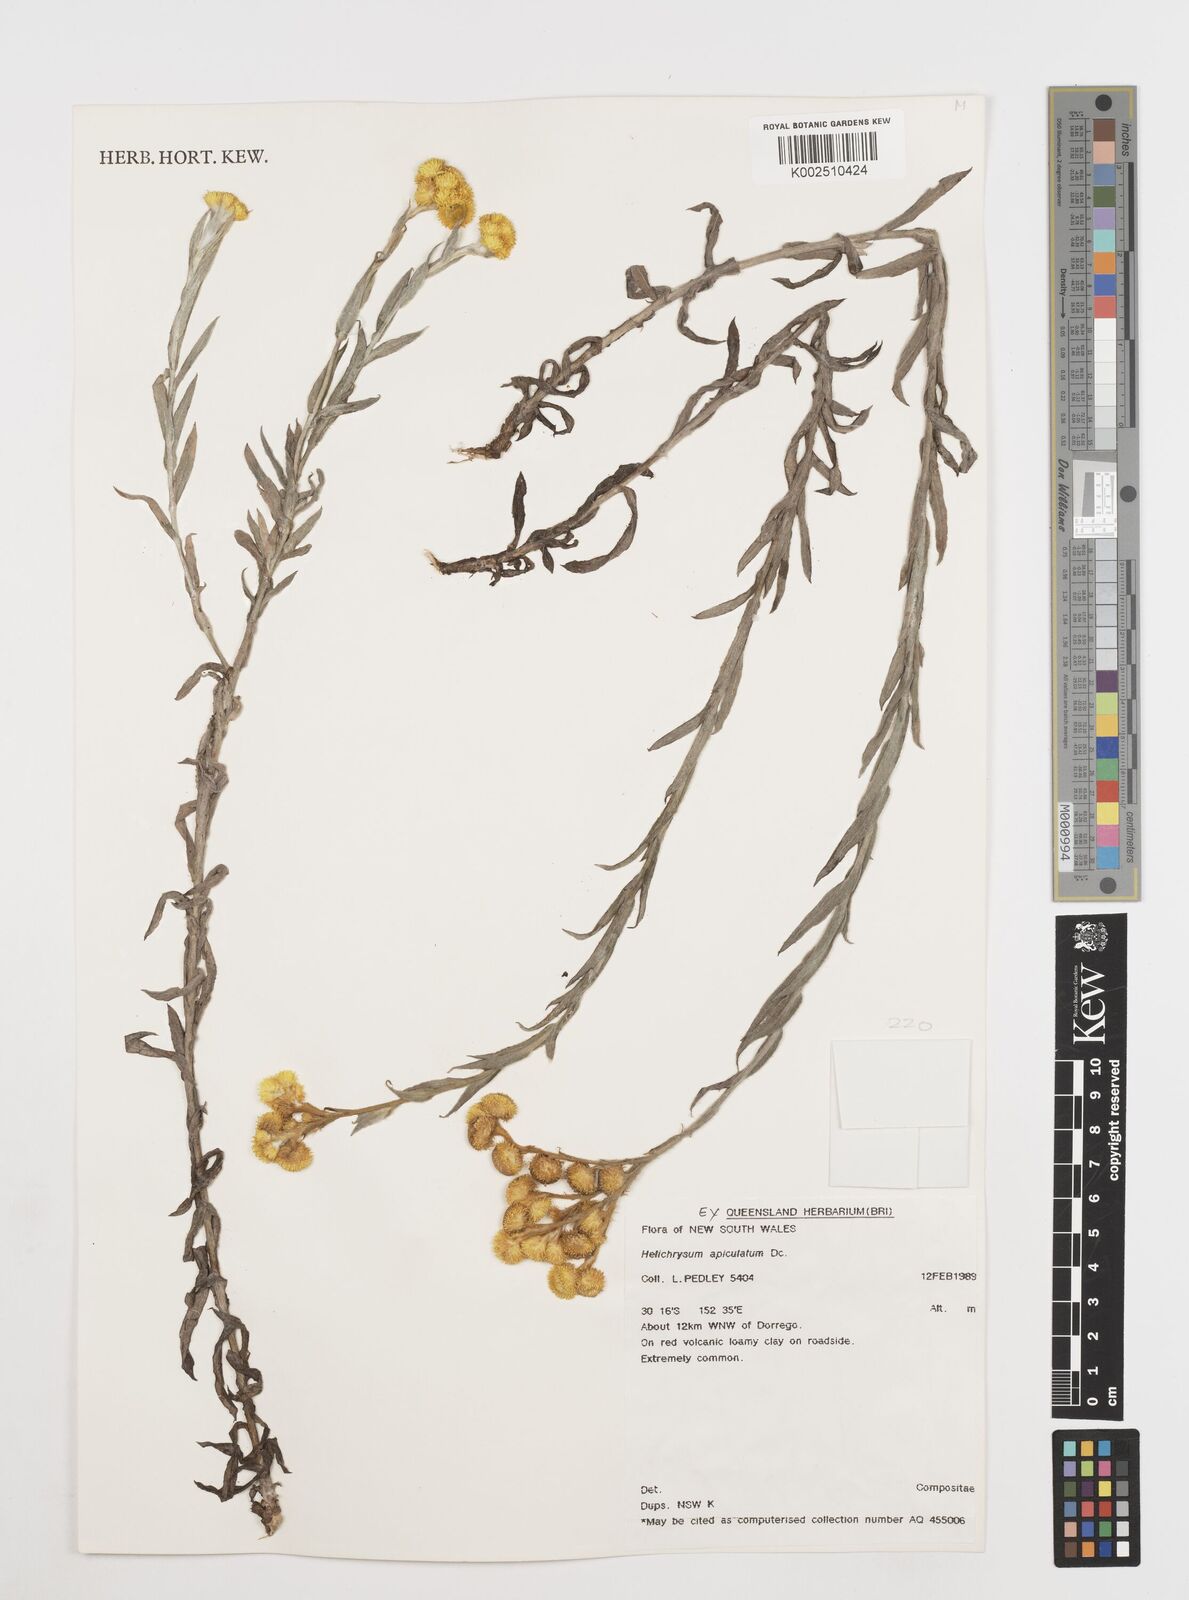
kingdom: Plantae
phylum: Tracheophyta
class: Magnoliopsida
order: Asterales
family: Asteraceae
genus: Chrysocephalum
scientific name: Chrysocephalum apiculatum
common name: Common everlasting
